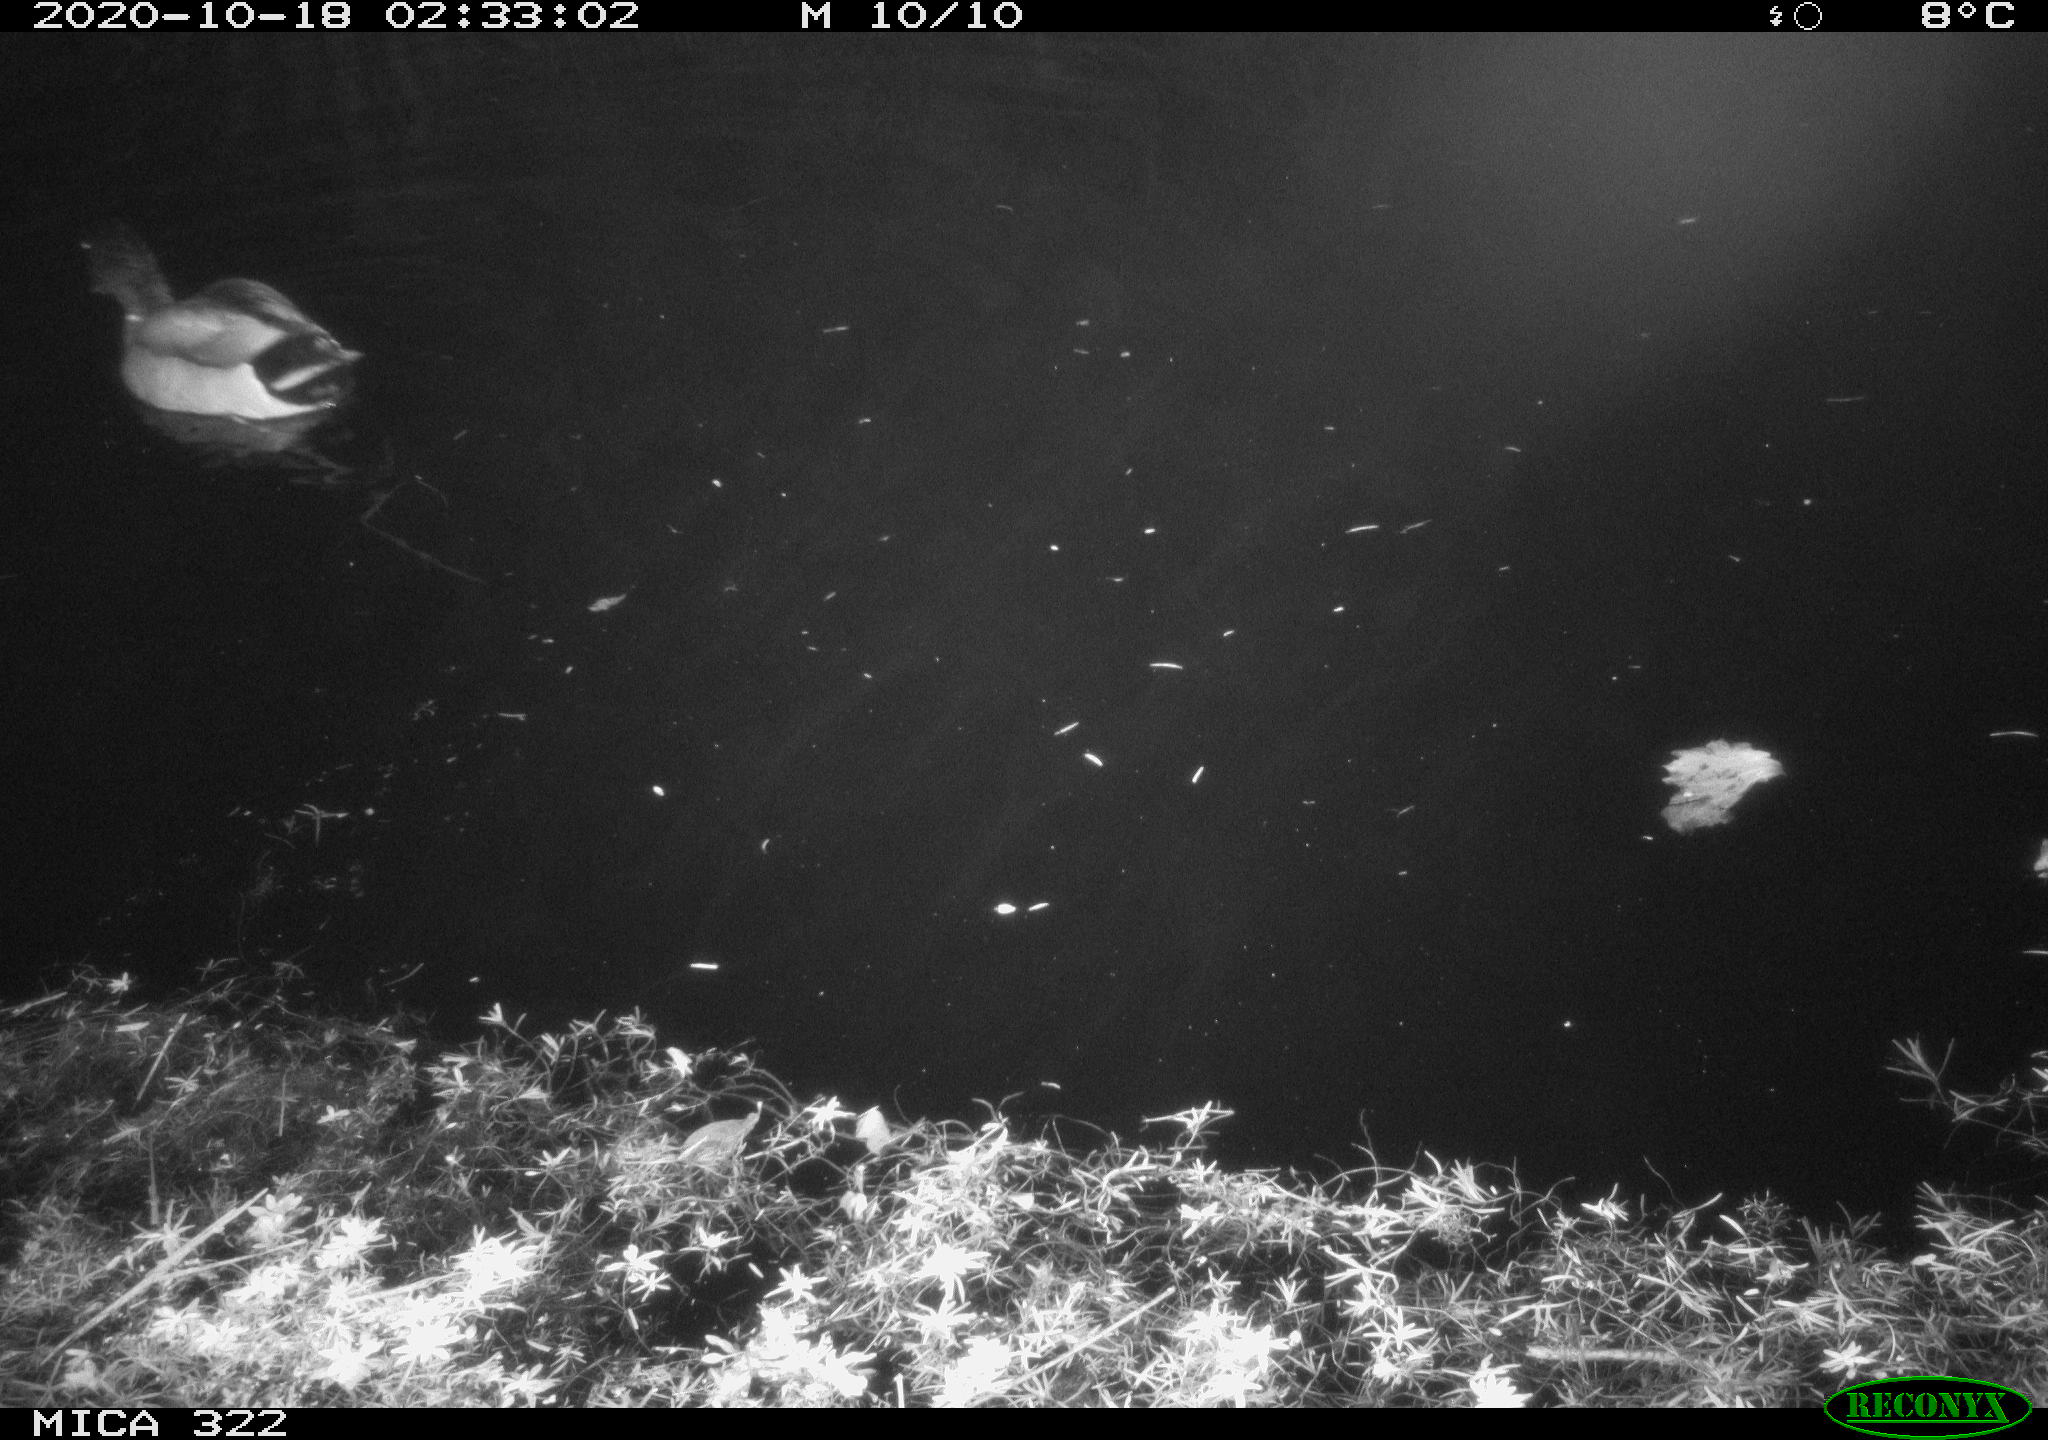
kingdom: Animalia
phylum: Chordata
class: Aves
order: Anseriformes
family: Anatidae
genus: Anas
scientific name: Anas platyrhynchos
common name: Mallard
